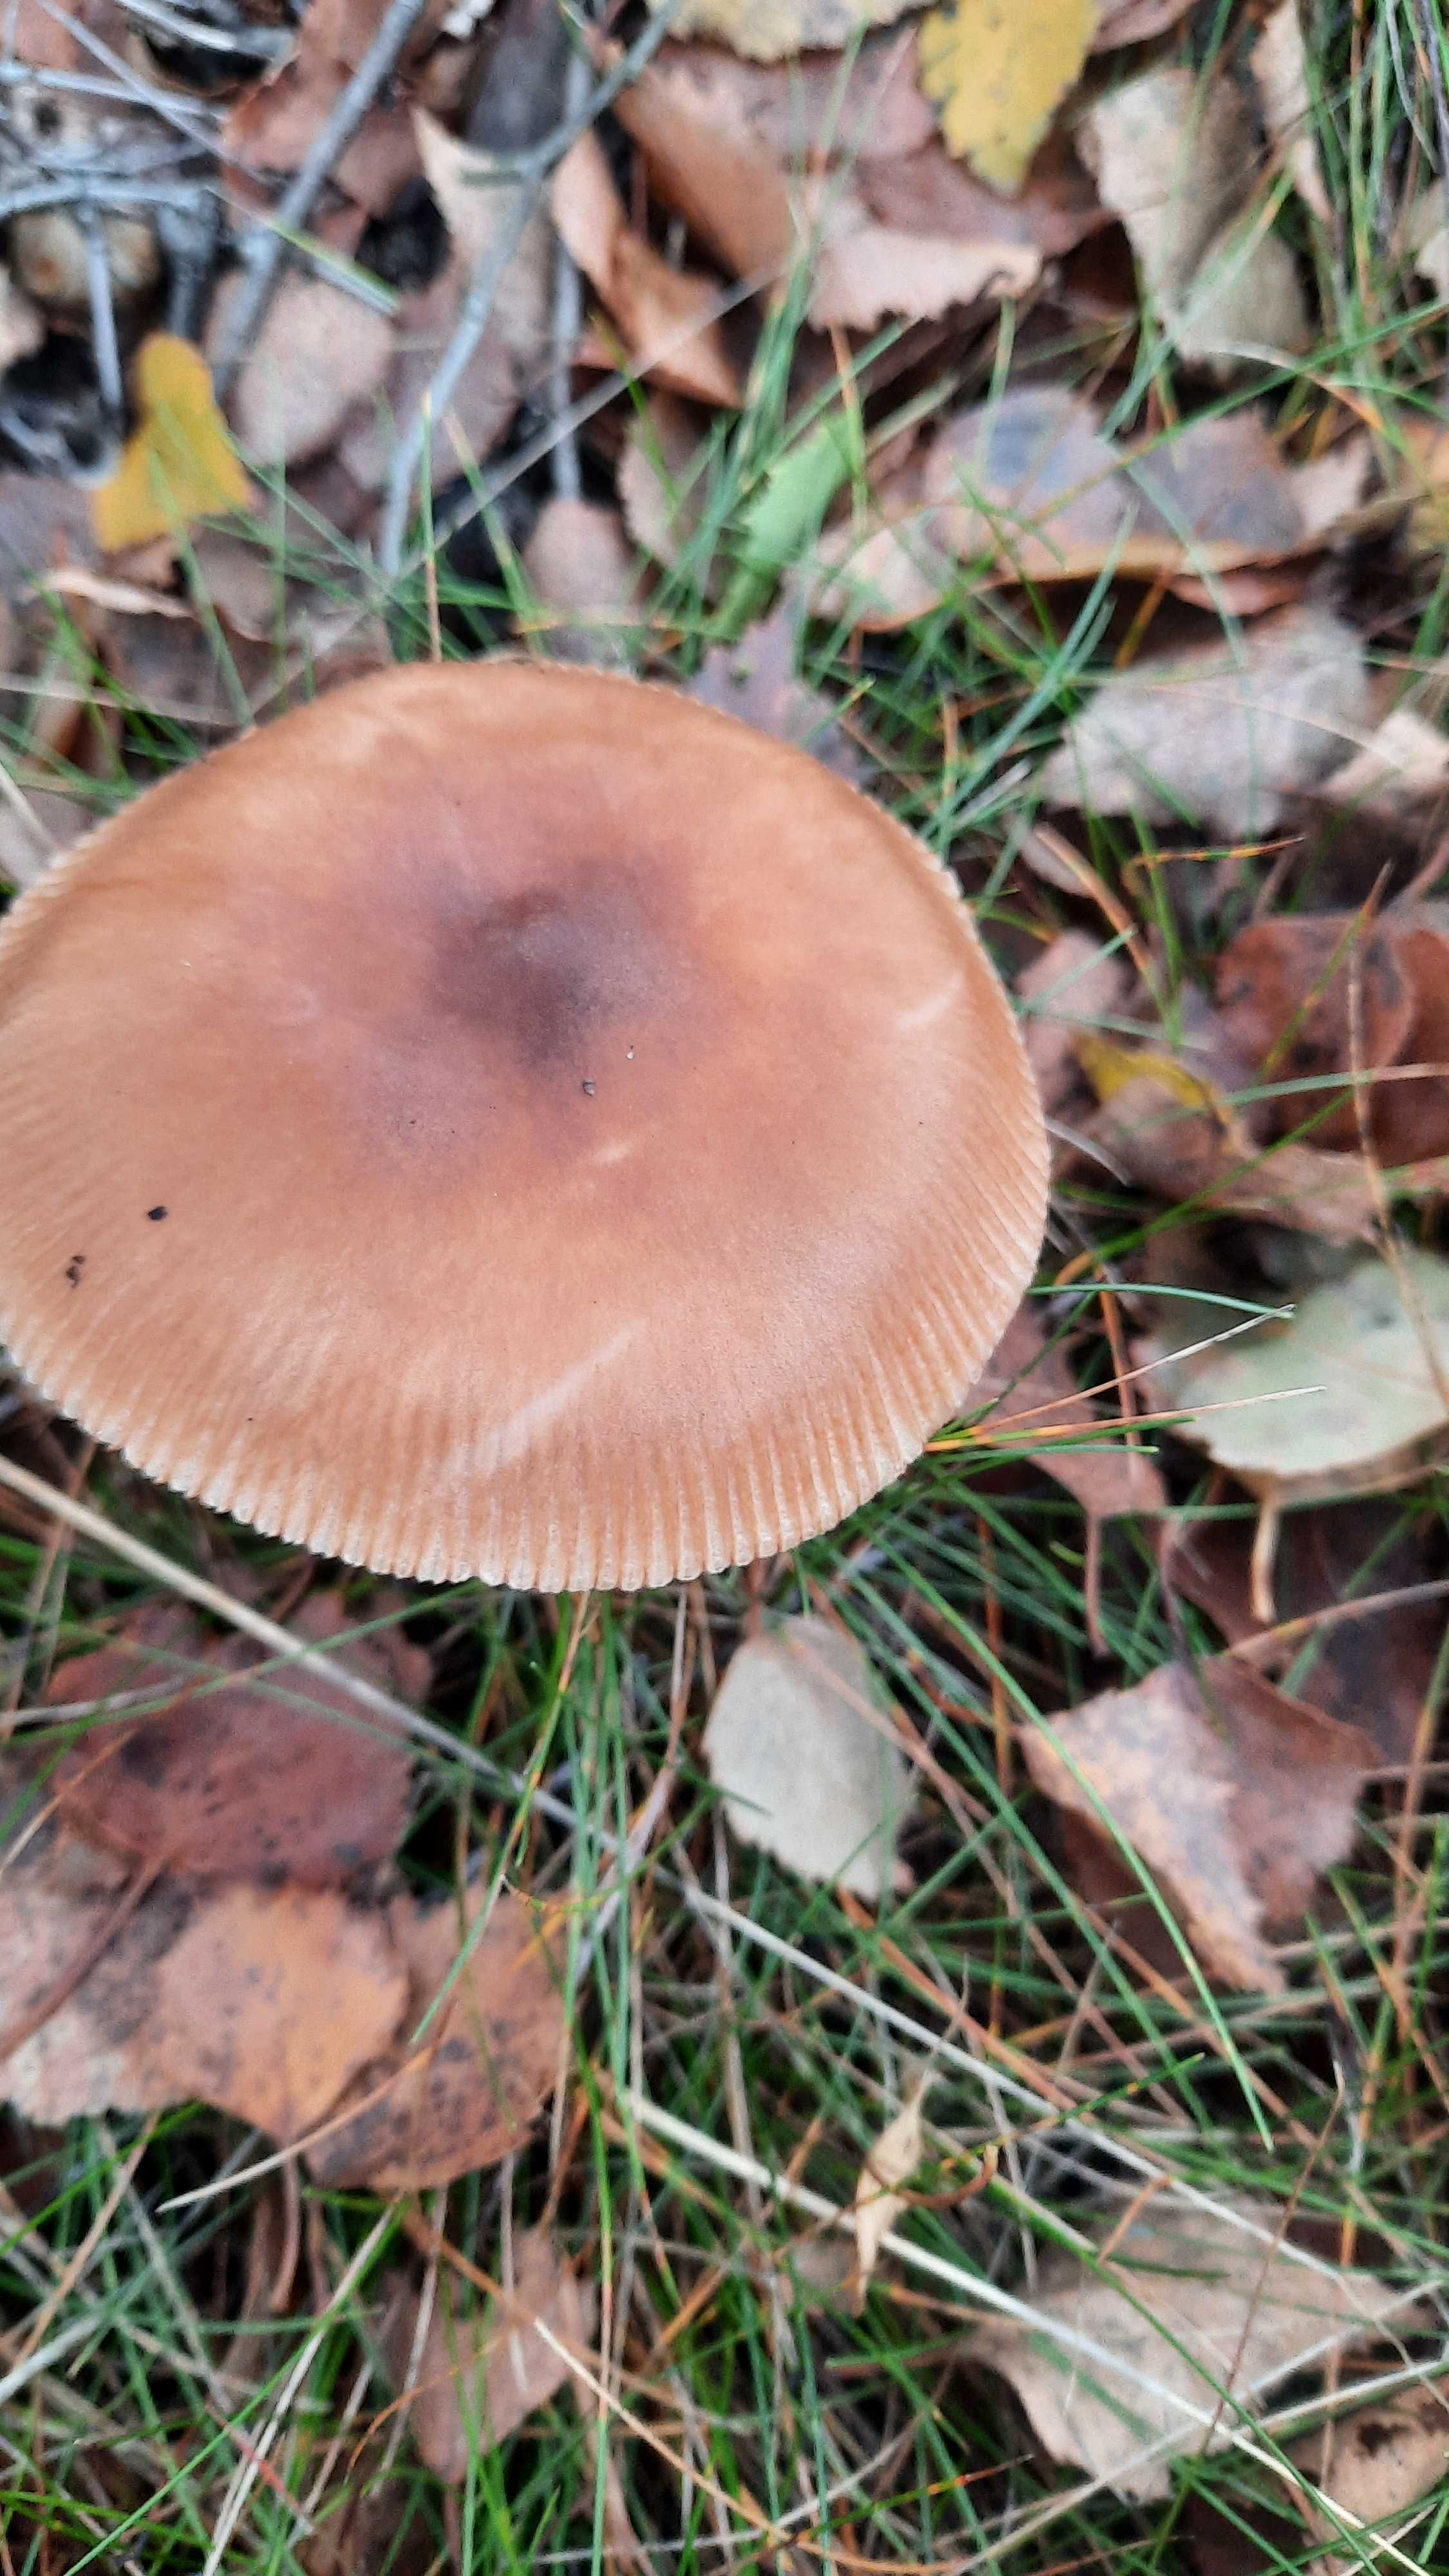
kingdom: Fungi
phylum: Basidiomycota
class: Agaricomycetes
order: Agaricales
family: Amanitaceae
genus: Amanita
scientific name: Amanita fulva
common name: brun kam-fluesvamp
